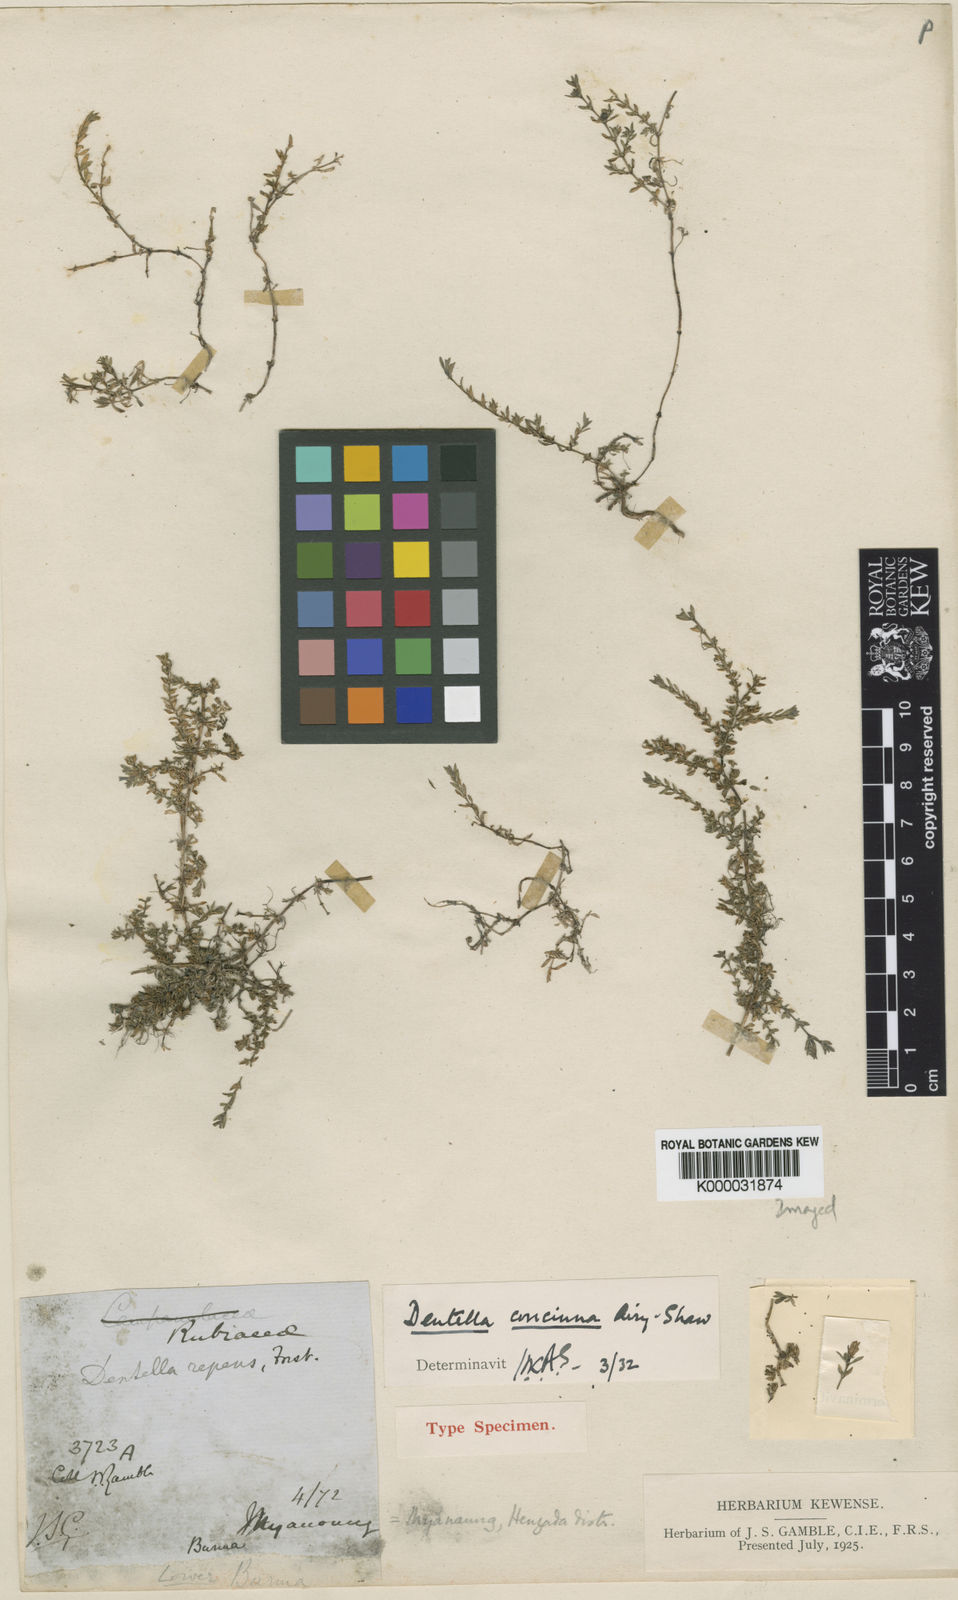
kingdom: Plantae
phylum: Tracheophyta
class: Magnoliopsida
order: Gentianales
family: Rubiaceae
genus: Dentella
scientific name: Dentella concinna
